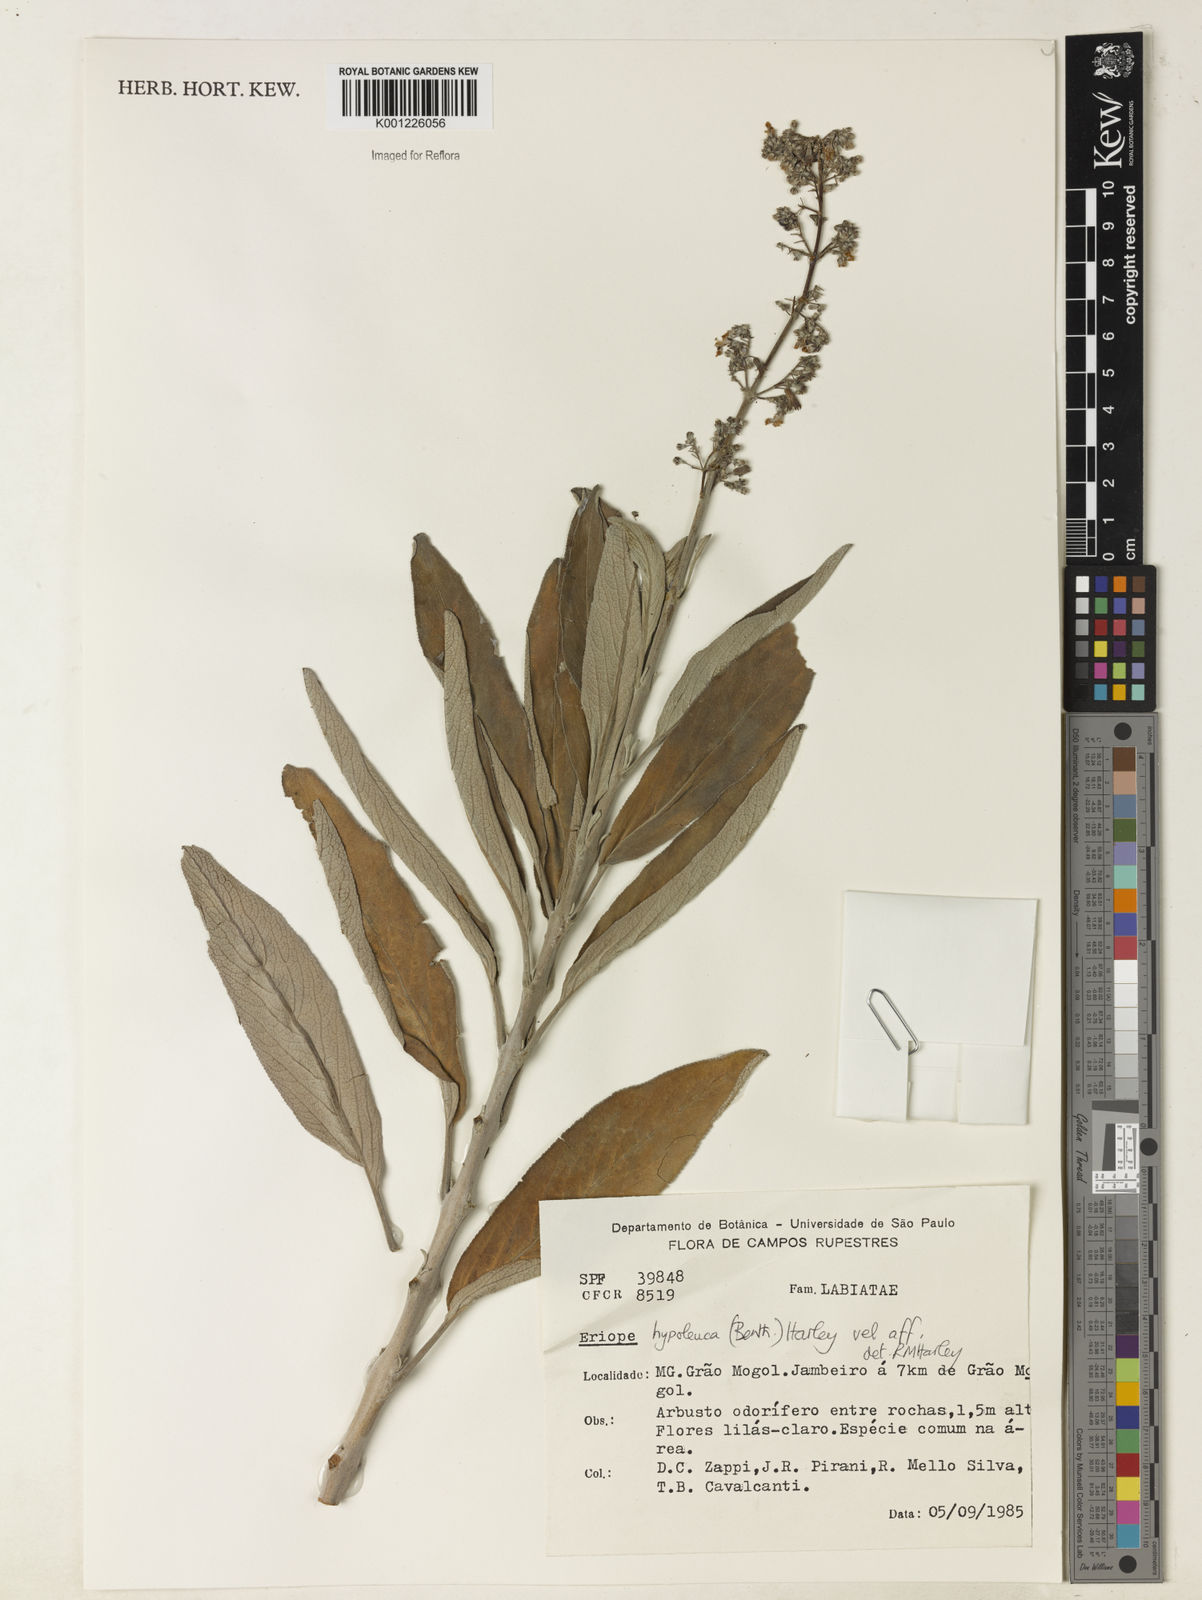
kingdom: Plantae
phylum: Tracheophyta
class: Magnoliopsida
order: Lamiales
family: Lamiaceae
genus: Eriope
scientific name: Eriope hypoleuca
